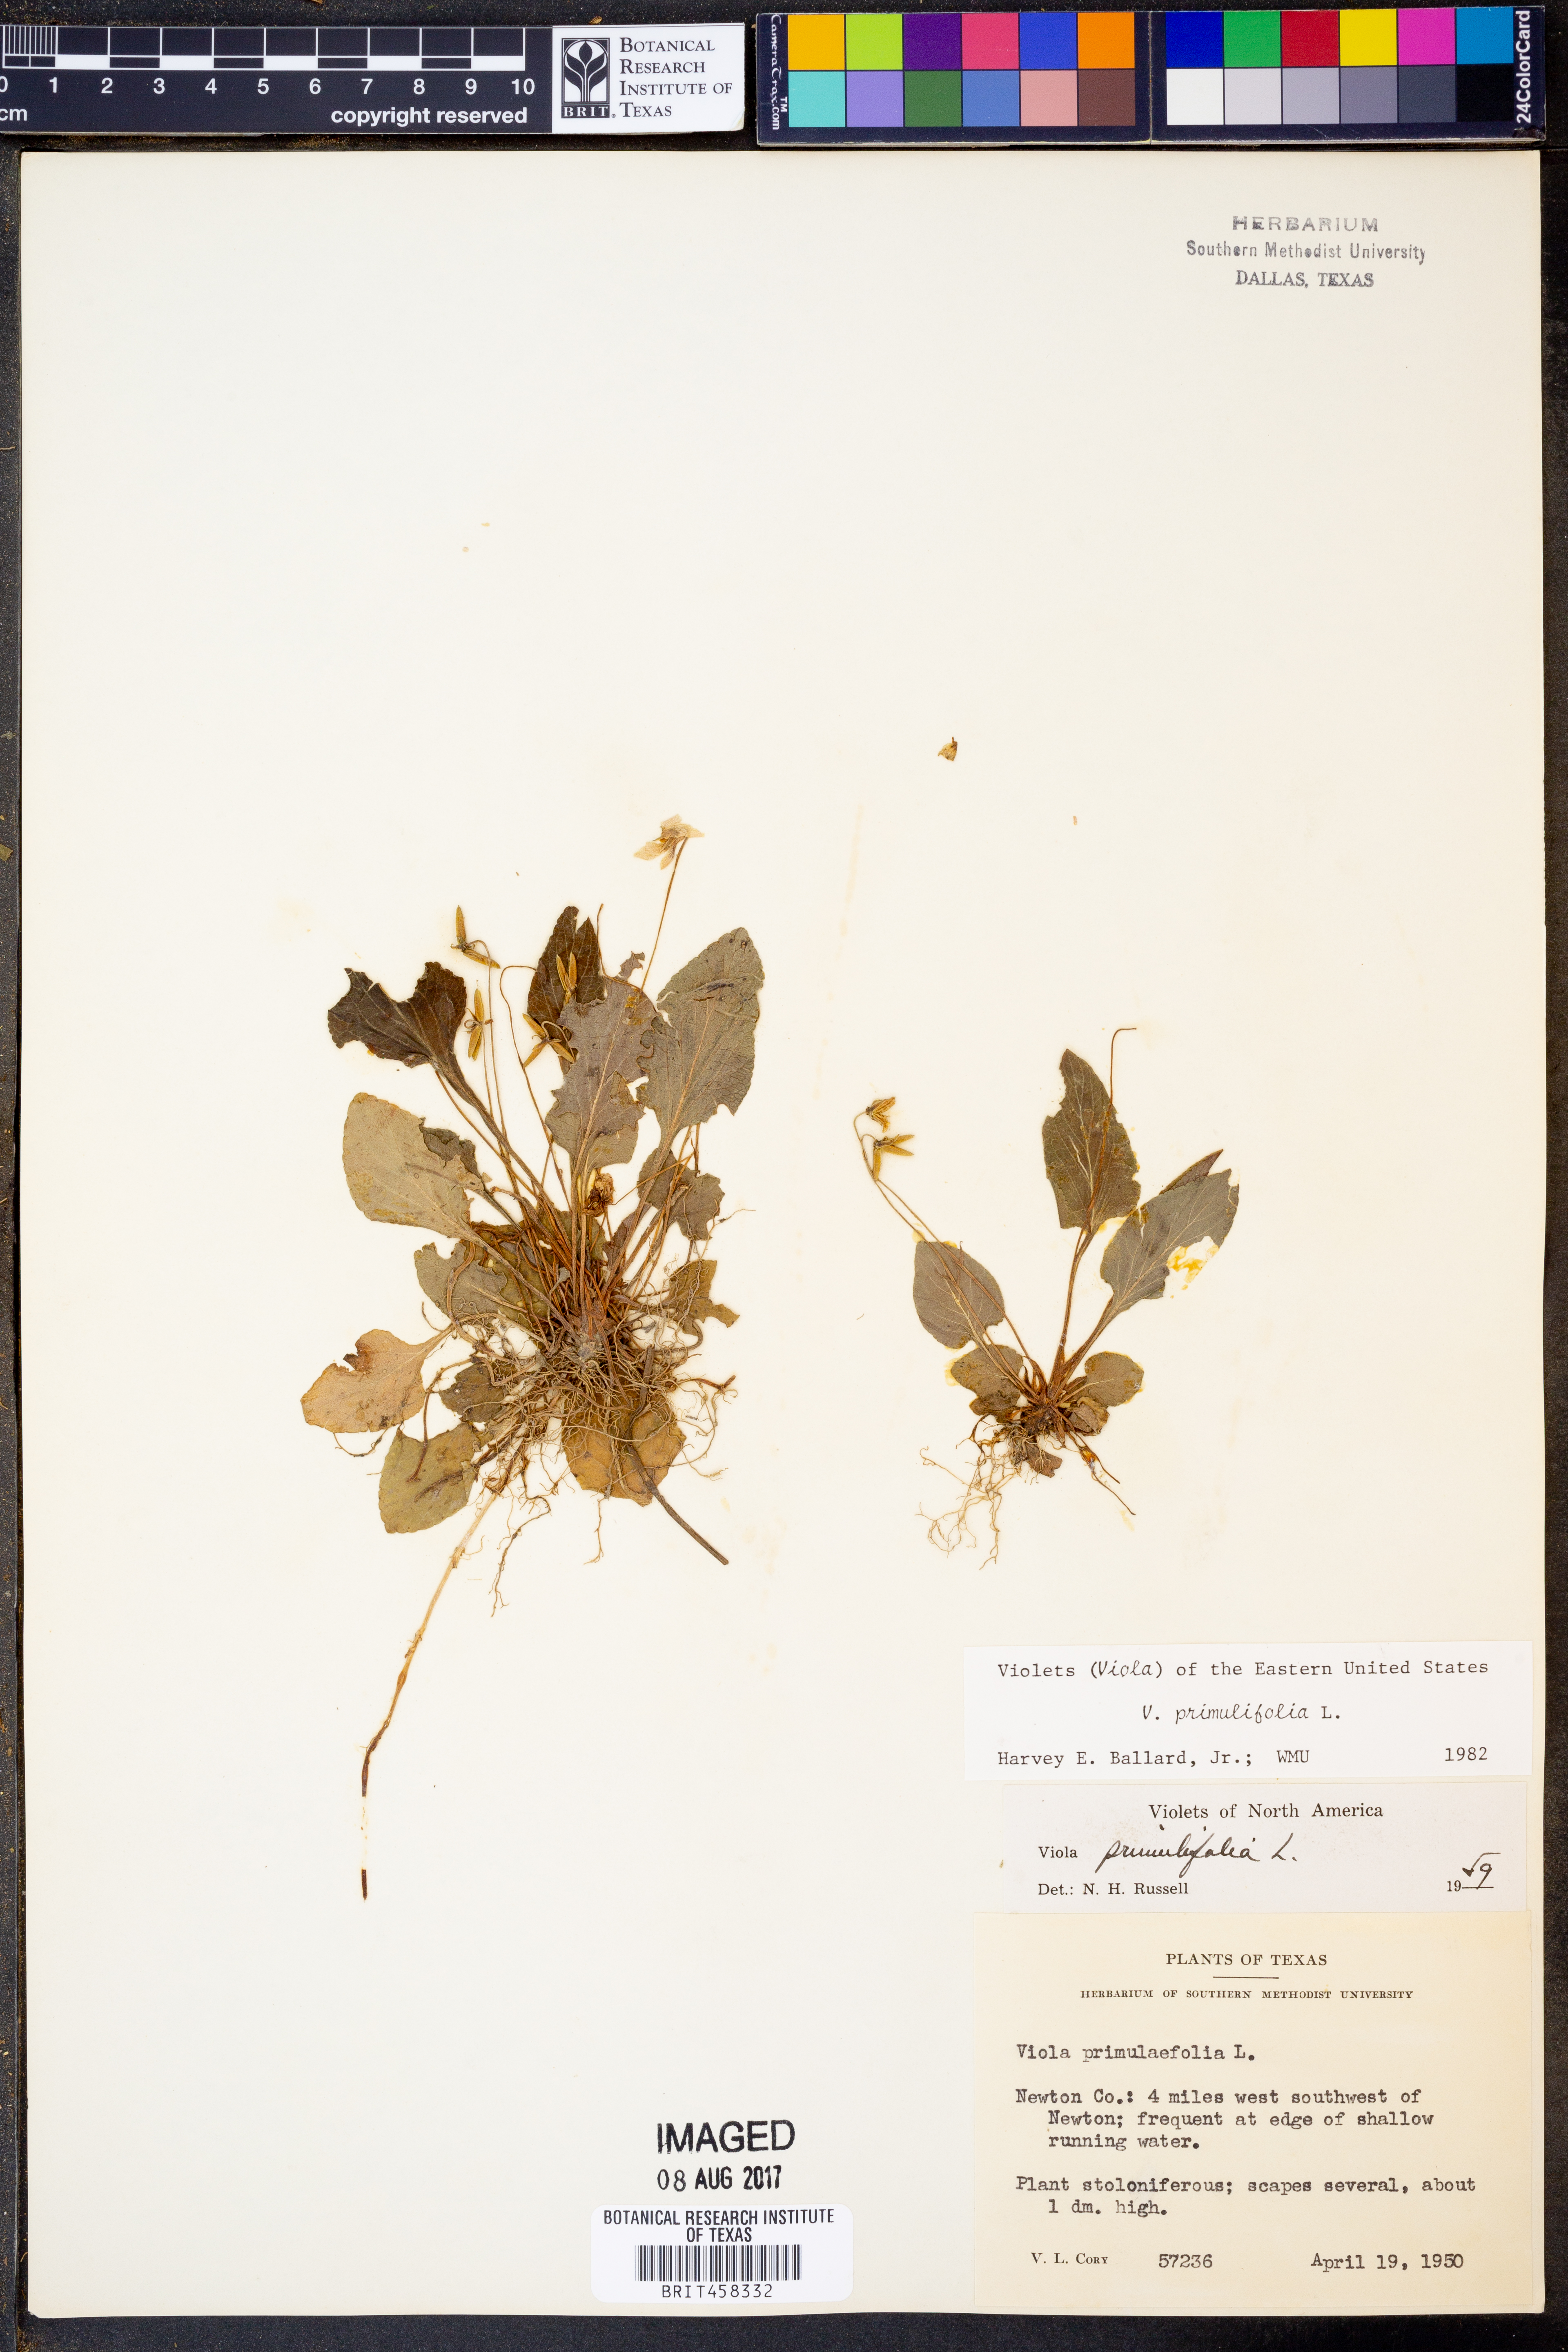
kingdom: Plantae
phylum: Tracheophyta
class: Magnoliopsida
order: Malpighiales
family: Violaceae
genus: Viola
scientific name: Viola primulifolia
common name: Primrose-leaf violet
